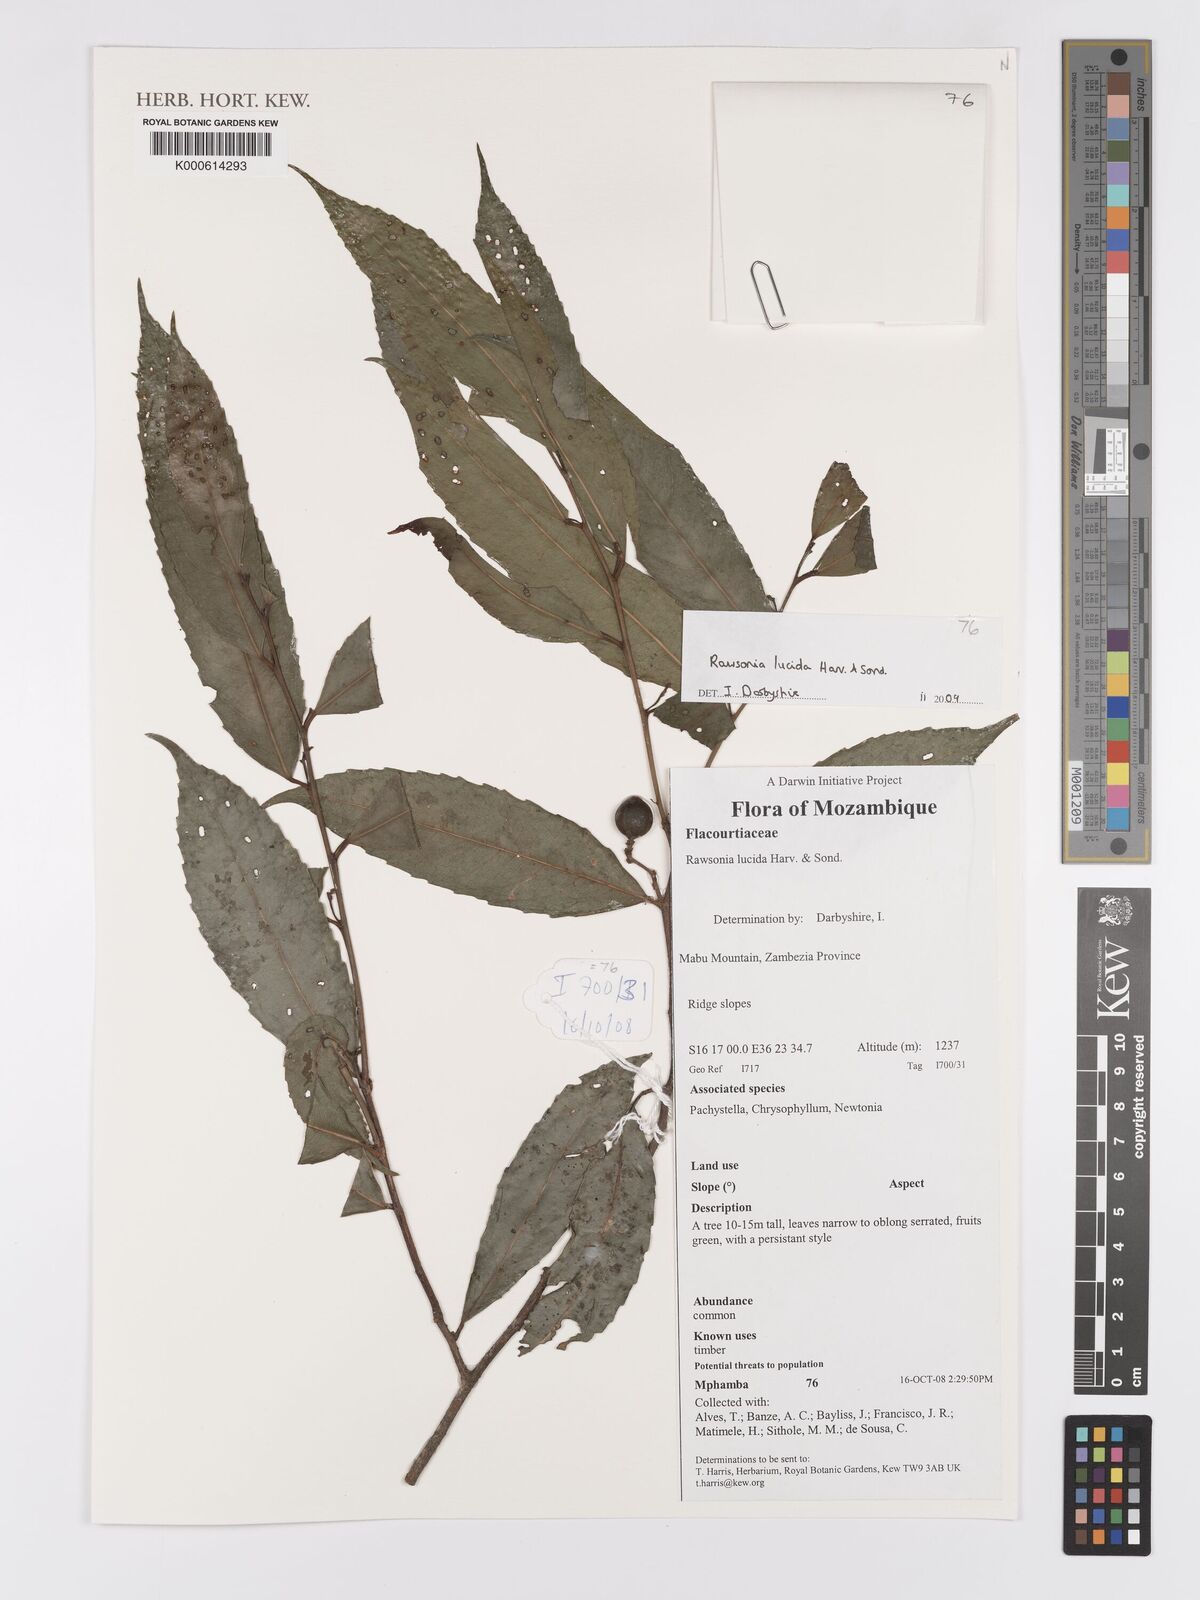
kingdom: Plantae
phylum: Tracheophyta
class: Magnoliopsida
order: Malpighiales
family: Achariaceae
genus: Rawsonia
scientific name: Rawsonia lucida
